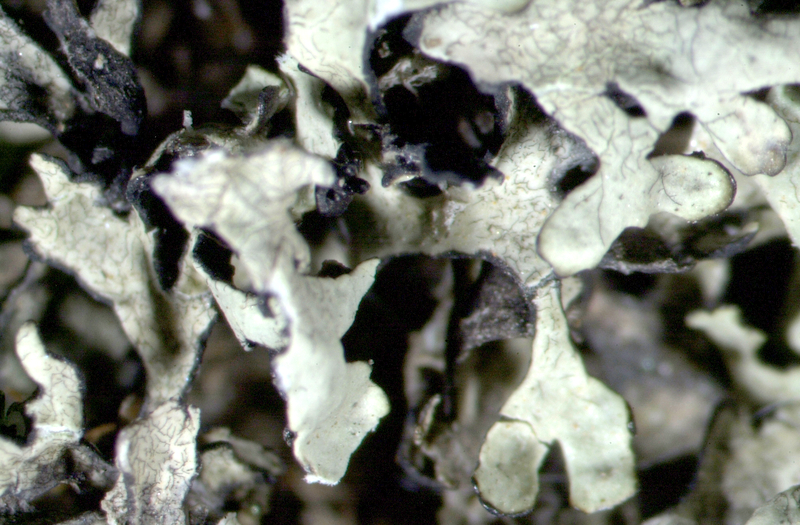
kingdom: Fungi
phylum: Ascomycota
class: Lecanoromycetes
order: Lecanorales
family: Parmeliaceae
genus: Xanthoparmelia
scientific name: Xanthoparmelia walteri
